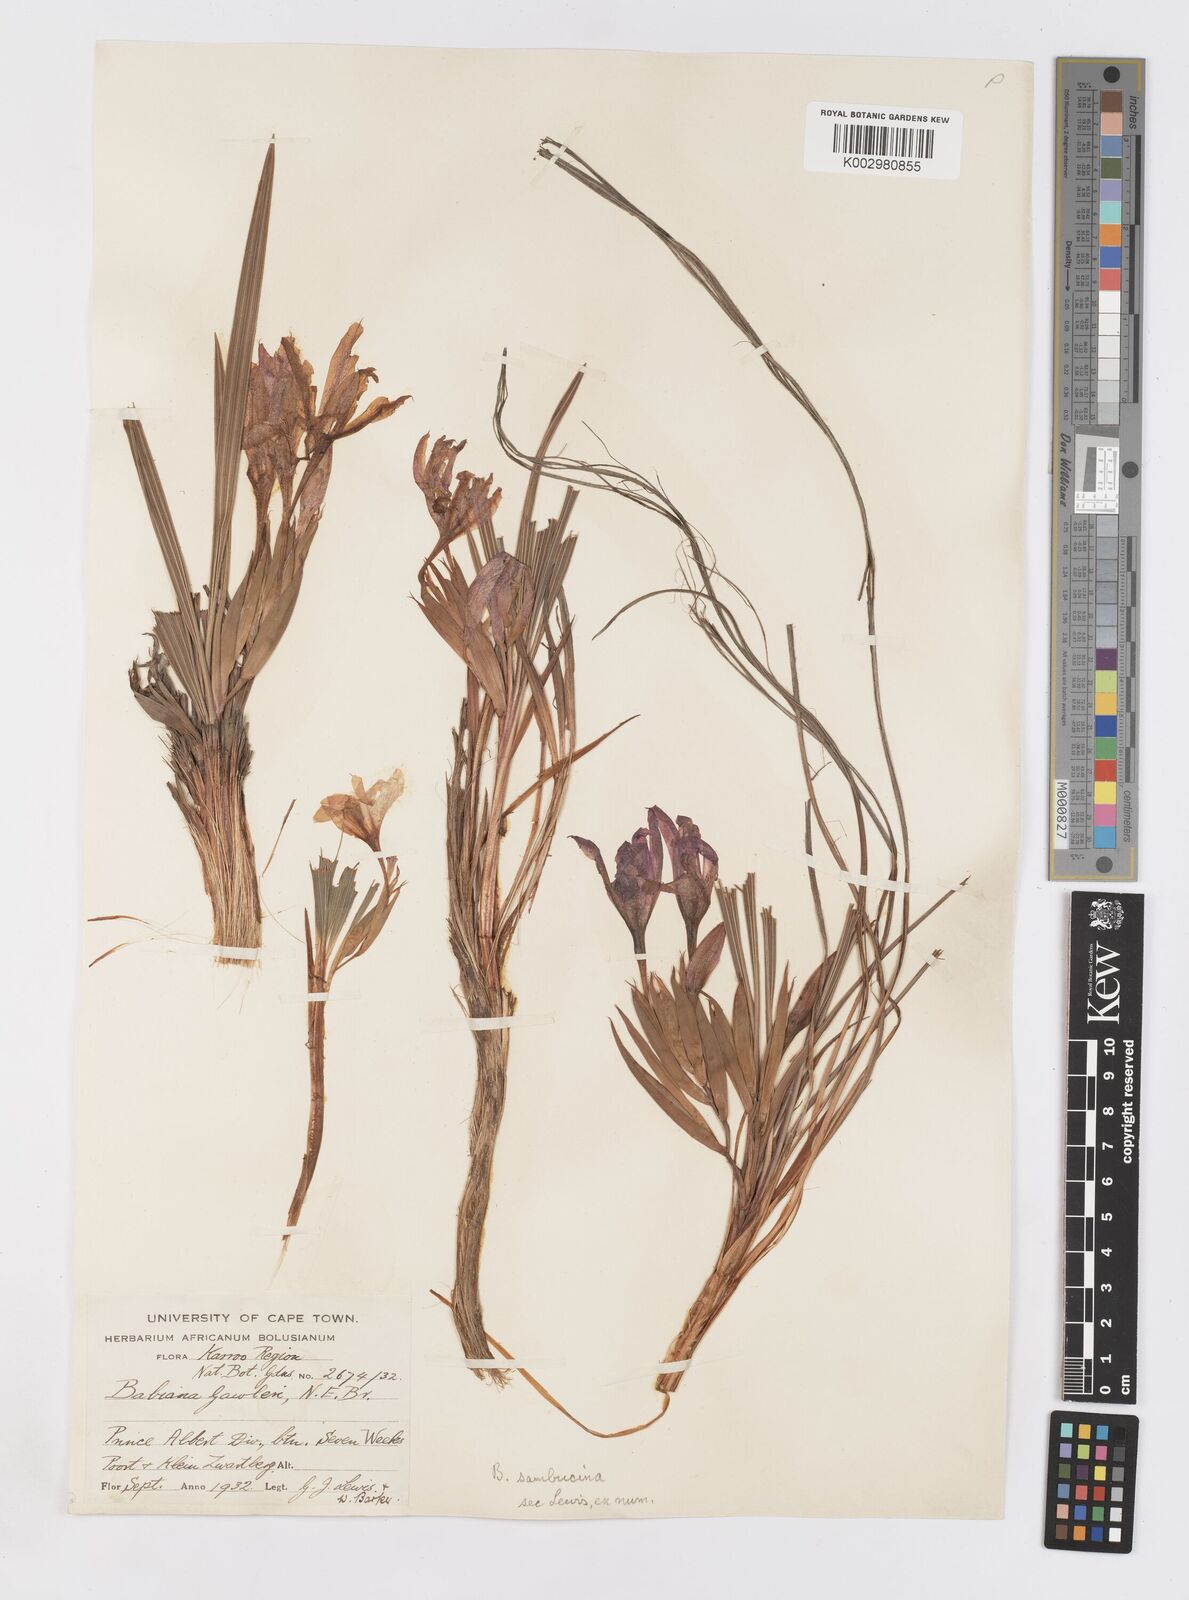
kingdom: Plantae
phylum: Tracheophyta
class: Liliopsida
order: Asparagales
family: Iridaceae
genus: Babiana
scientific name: Babiana sambucina
